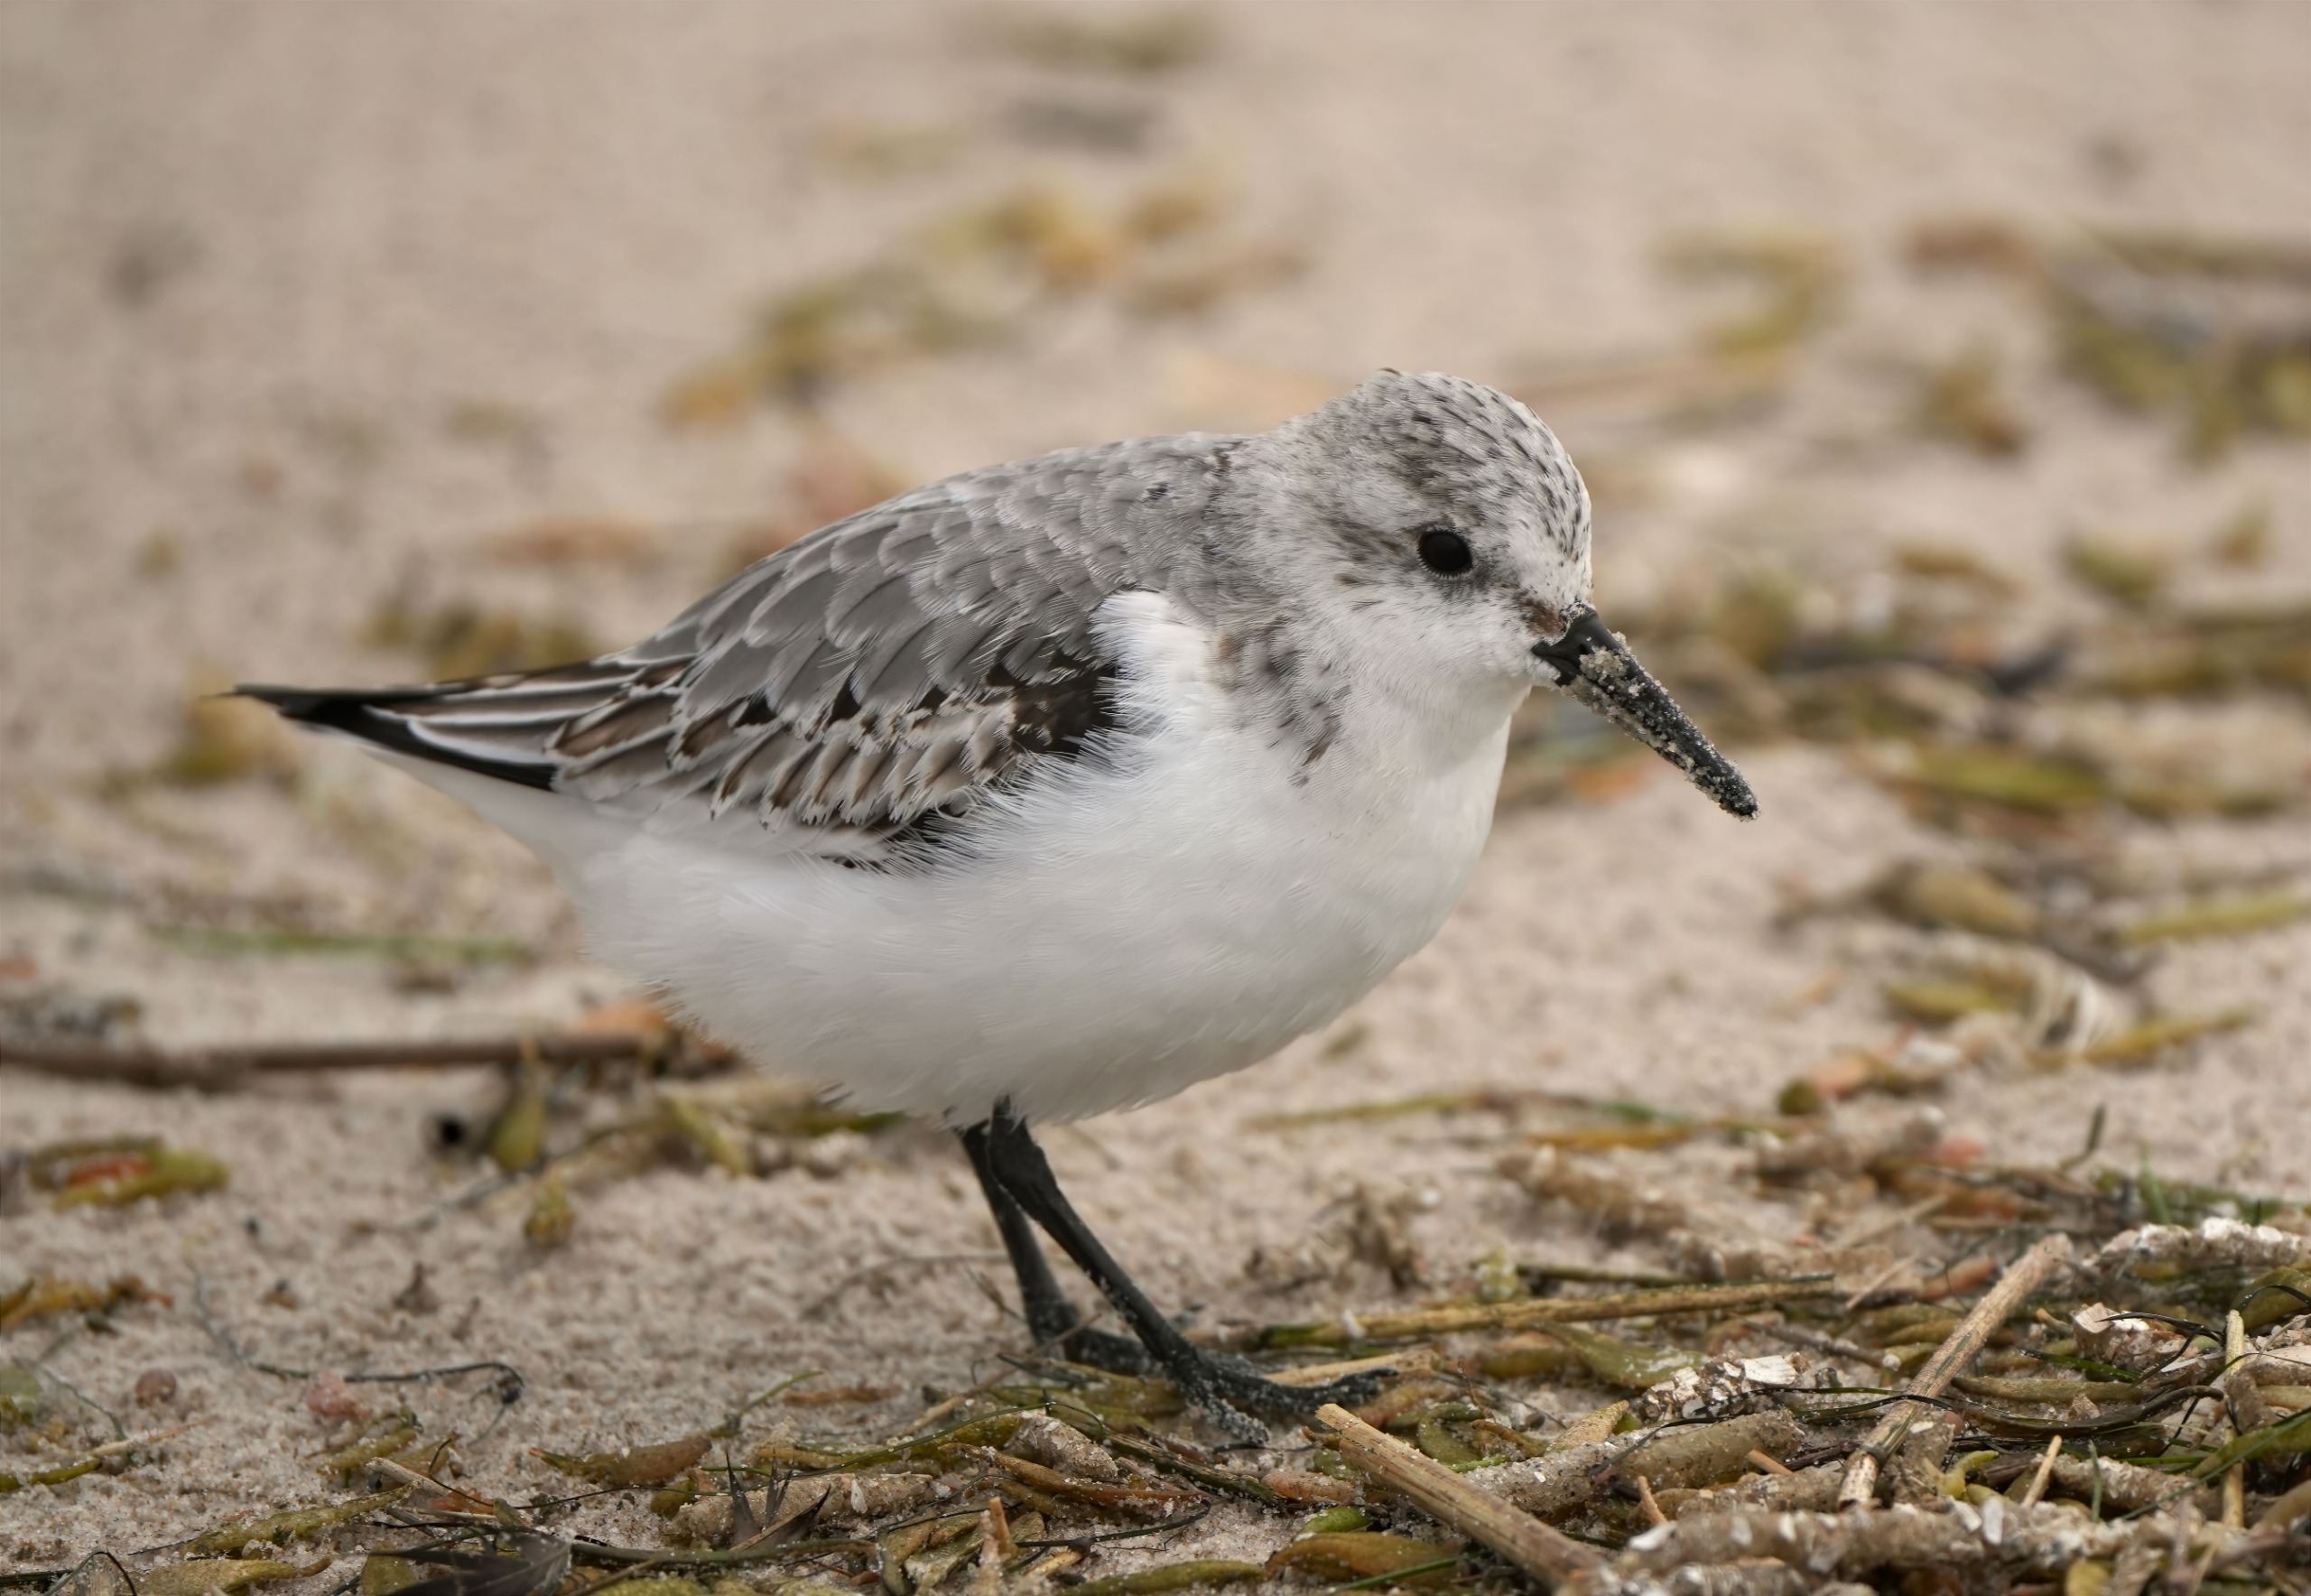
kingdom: Animalia
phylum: Chordata
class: Aves
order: Charadriiformes
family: Scolopacidae
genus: Calidris
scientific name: Calidris alba
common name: Sandløber
